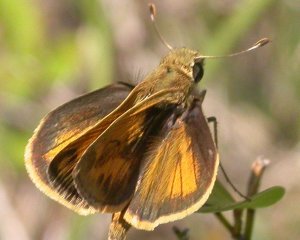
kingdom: Animalia
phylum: Arthropoda
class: Insecta
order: Lepidoptera
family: Hesperiidae
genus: Polites
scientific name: Polites vibex
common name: Whirlabout
